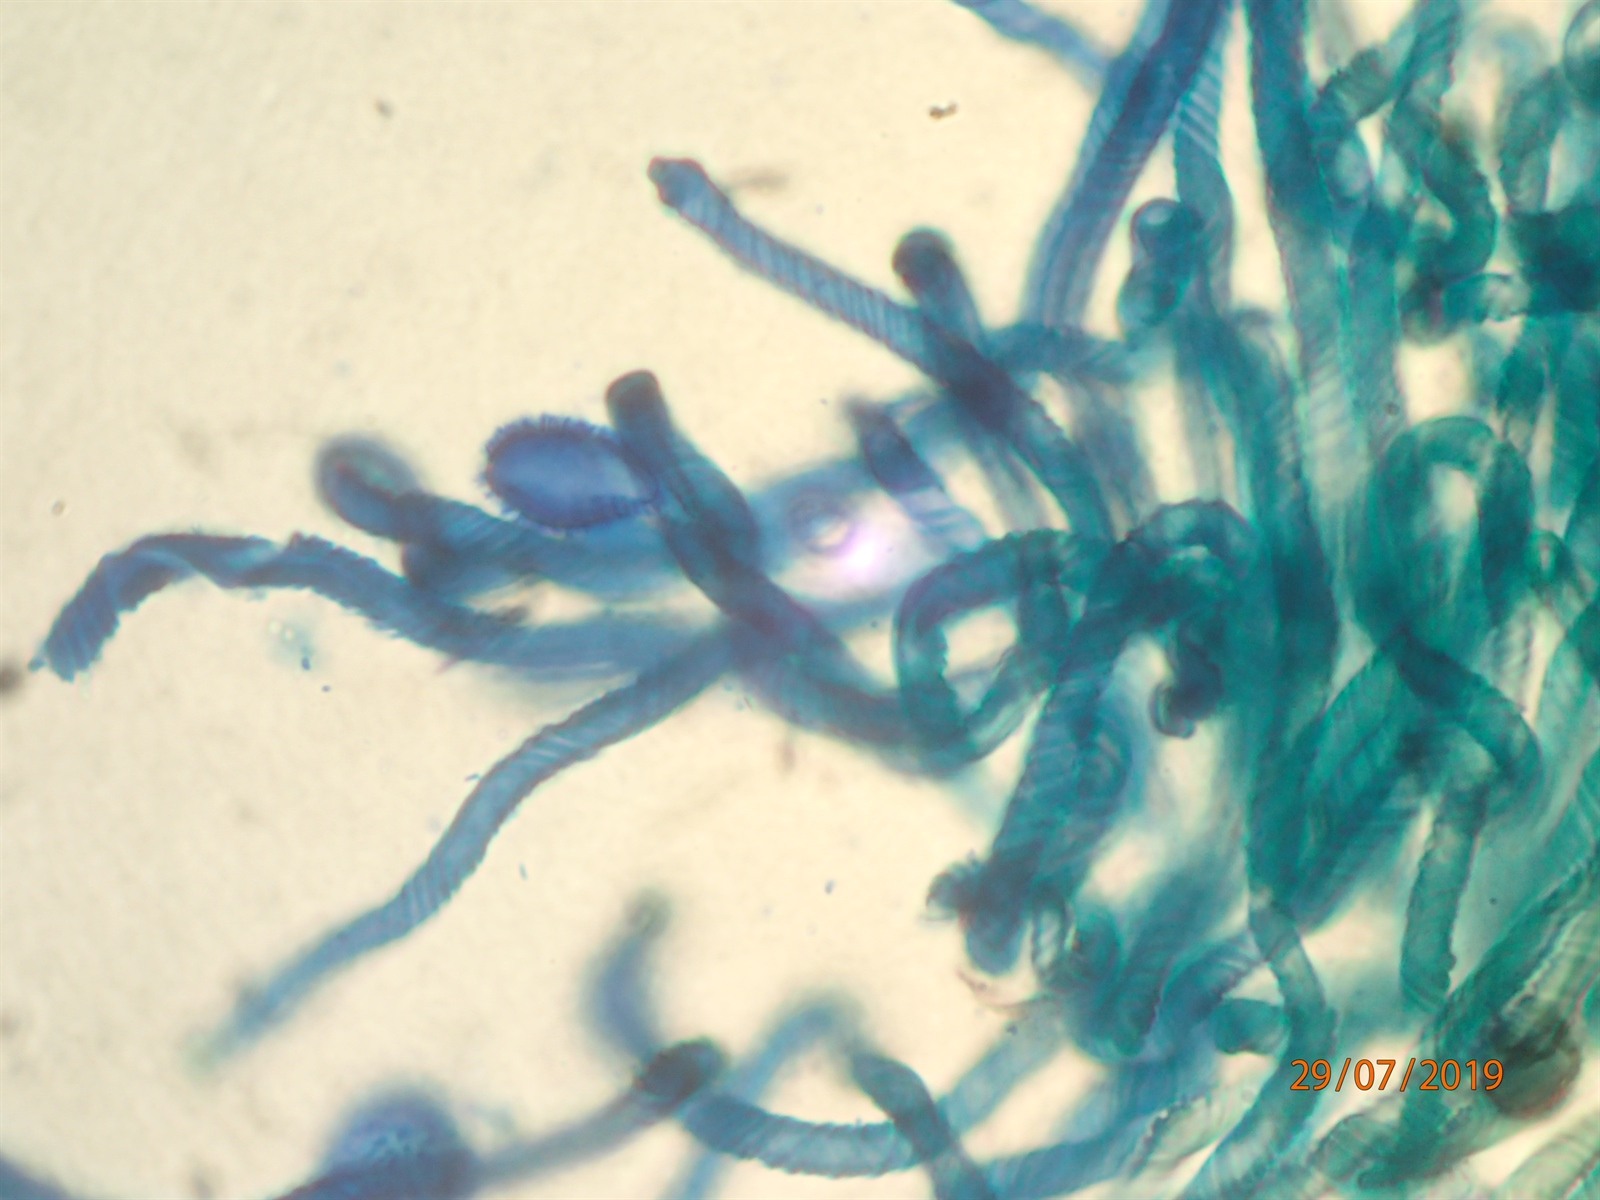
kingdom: Protozoa
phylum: Mycetozoa
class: Myxomycetes
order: Trichiales
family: Arcyriaceae
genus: Hemitrichia
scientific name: Hemitrichia leiotricha
